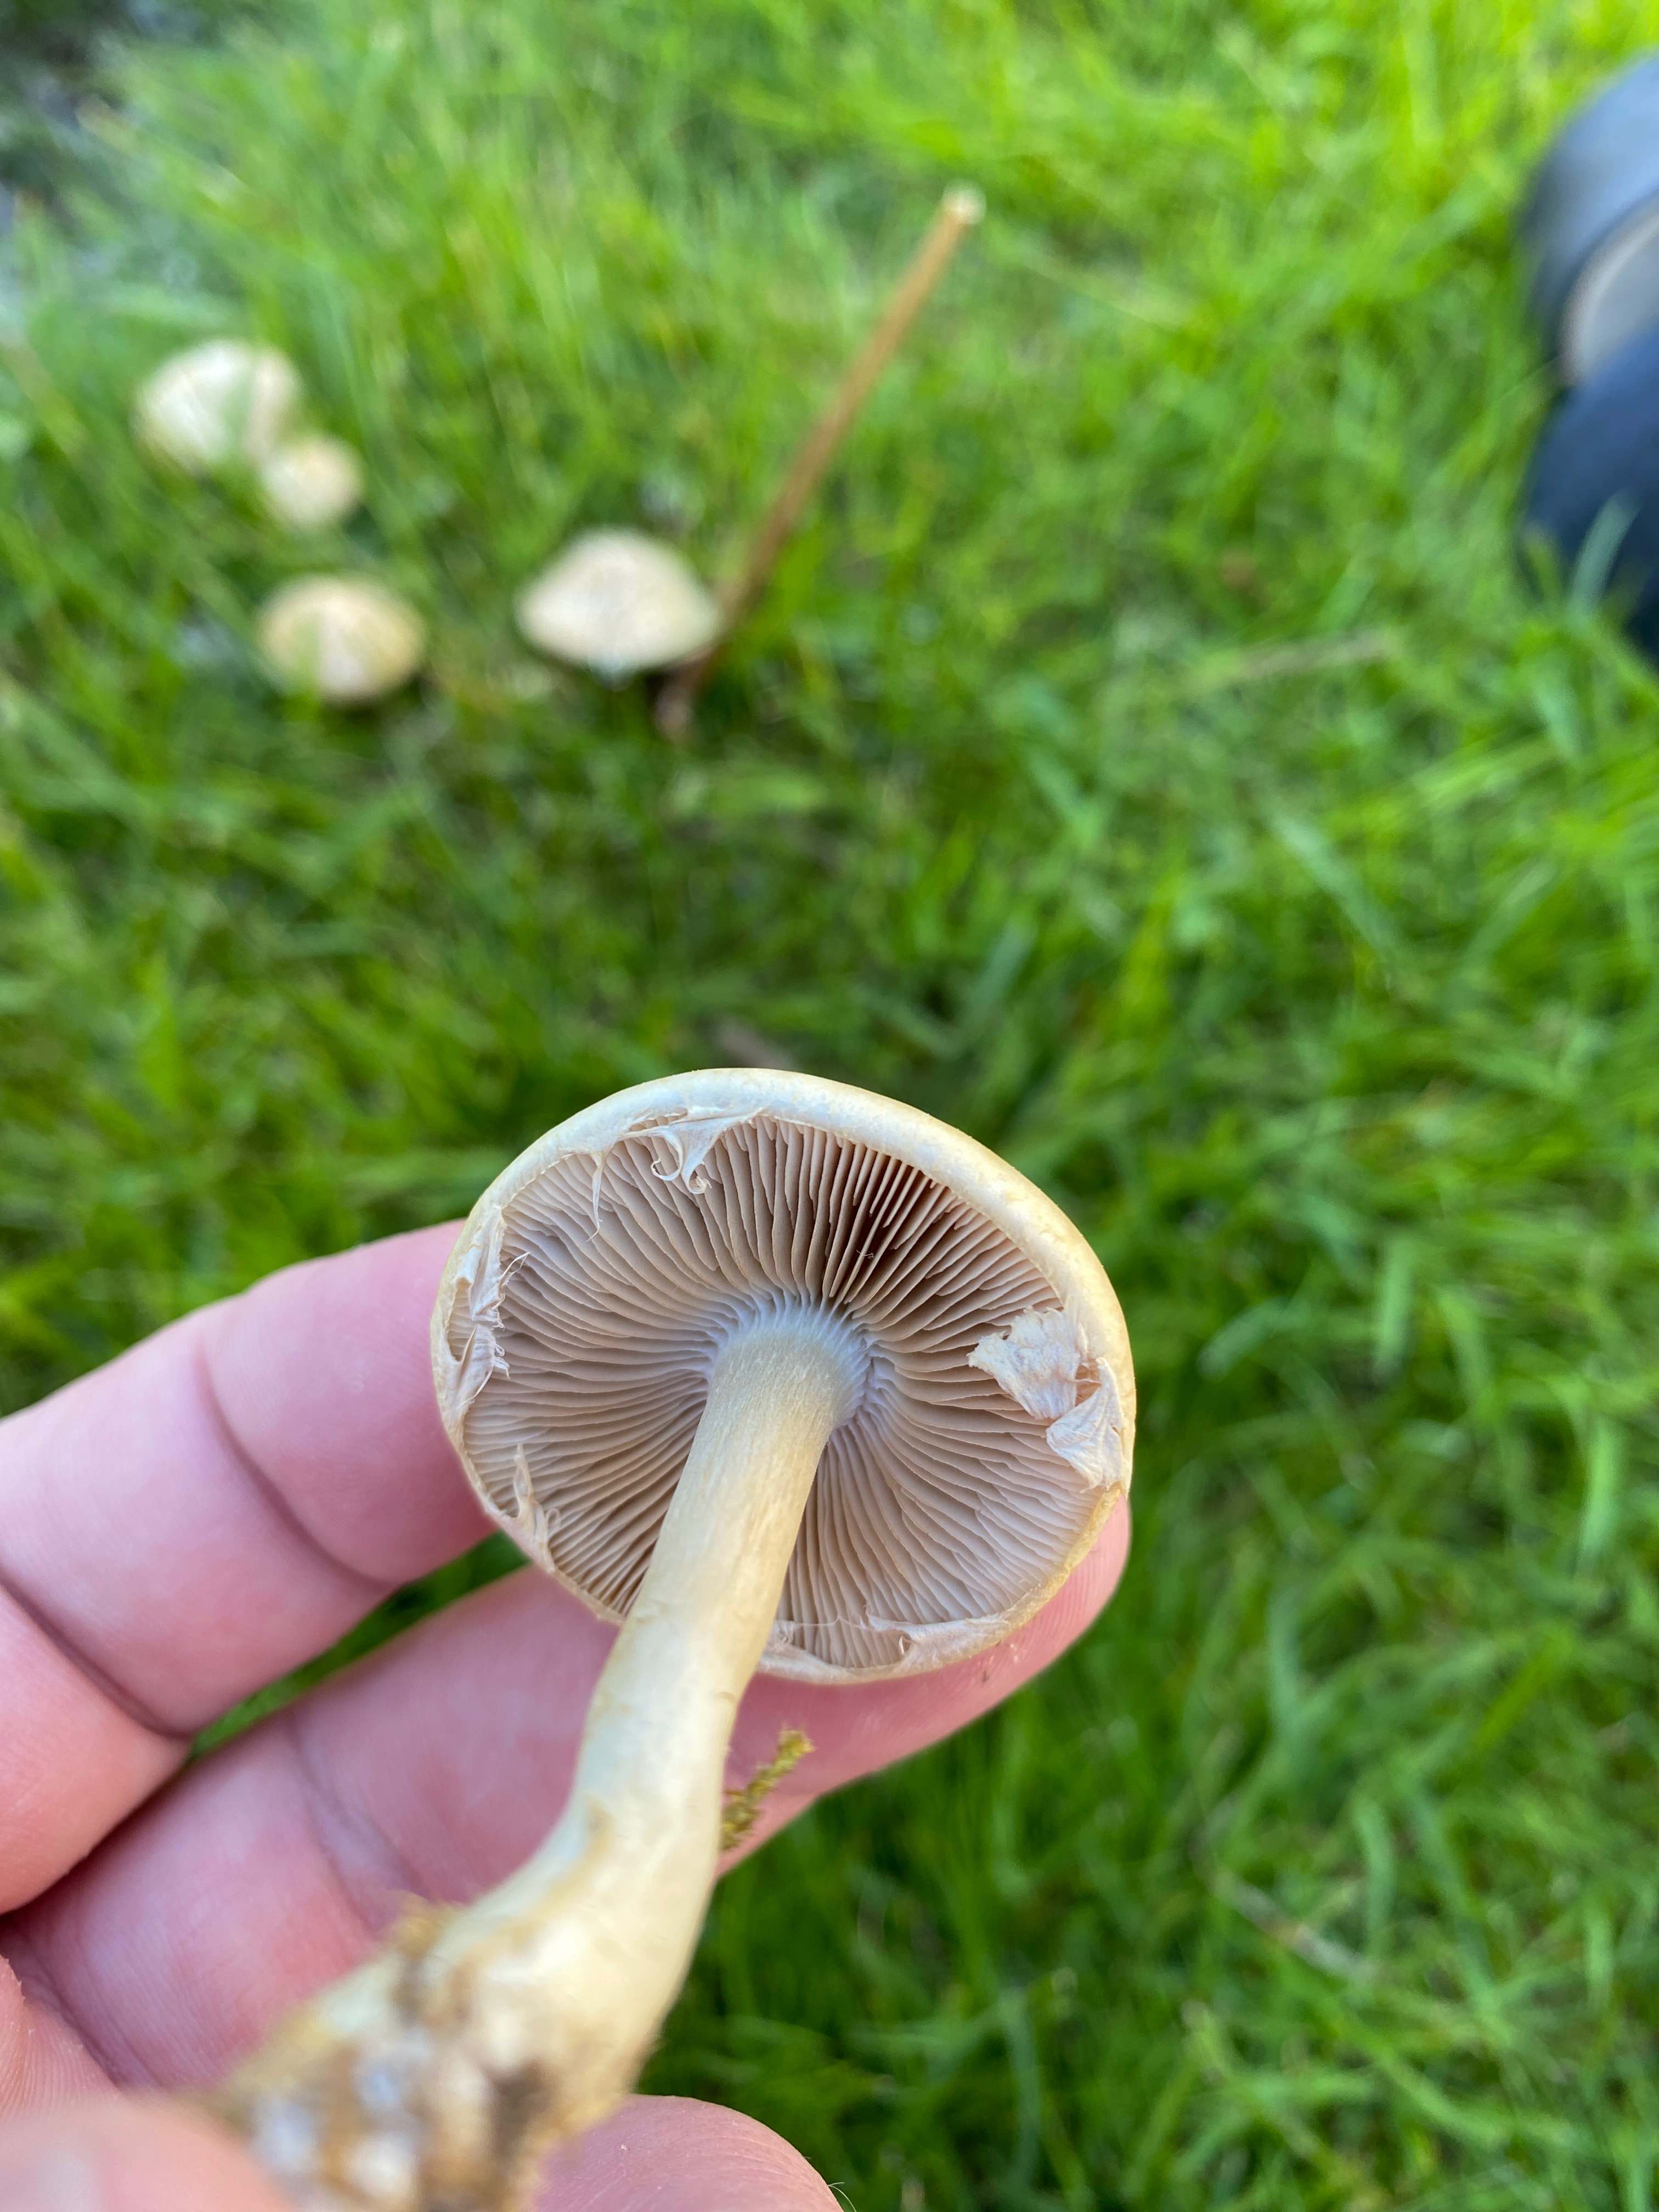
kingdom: Fungi
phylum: Basidiomycota
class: Agaricomycetes
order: Agaricales
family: Strophariaceae
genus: Agrocybe
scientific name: Agrocybe praecox
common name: tidlig agerhat
